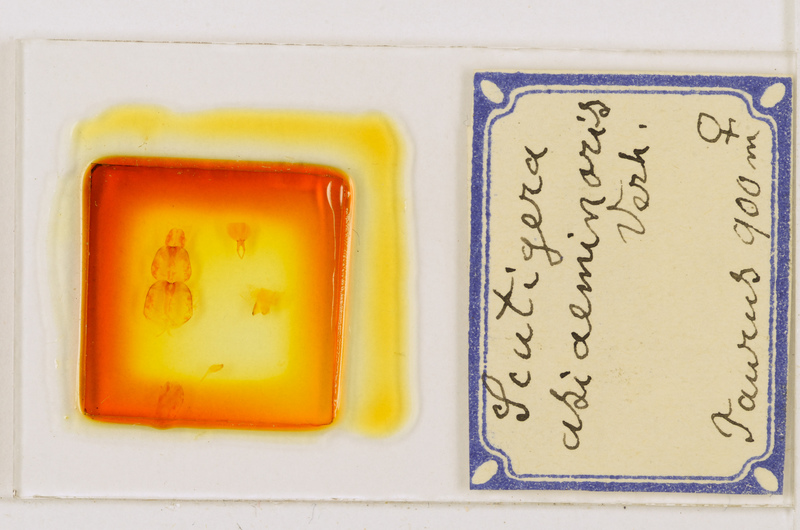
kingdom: Animalia
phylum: Arthropoda
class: Chilopoda
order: Scutigeromorpha
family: Scutigeridae
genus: Scutigera
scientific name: Scutigera coleoptrata
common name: House centipede
